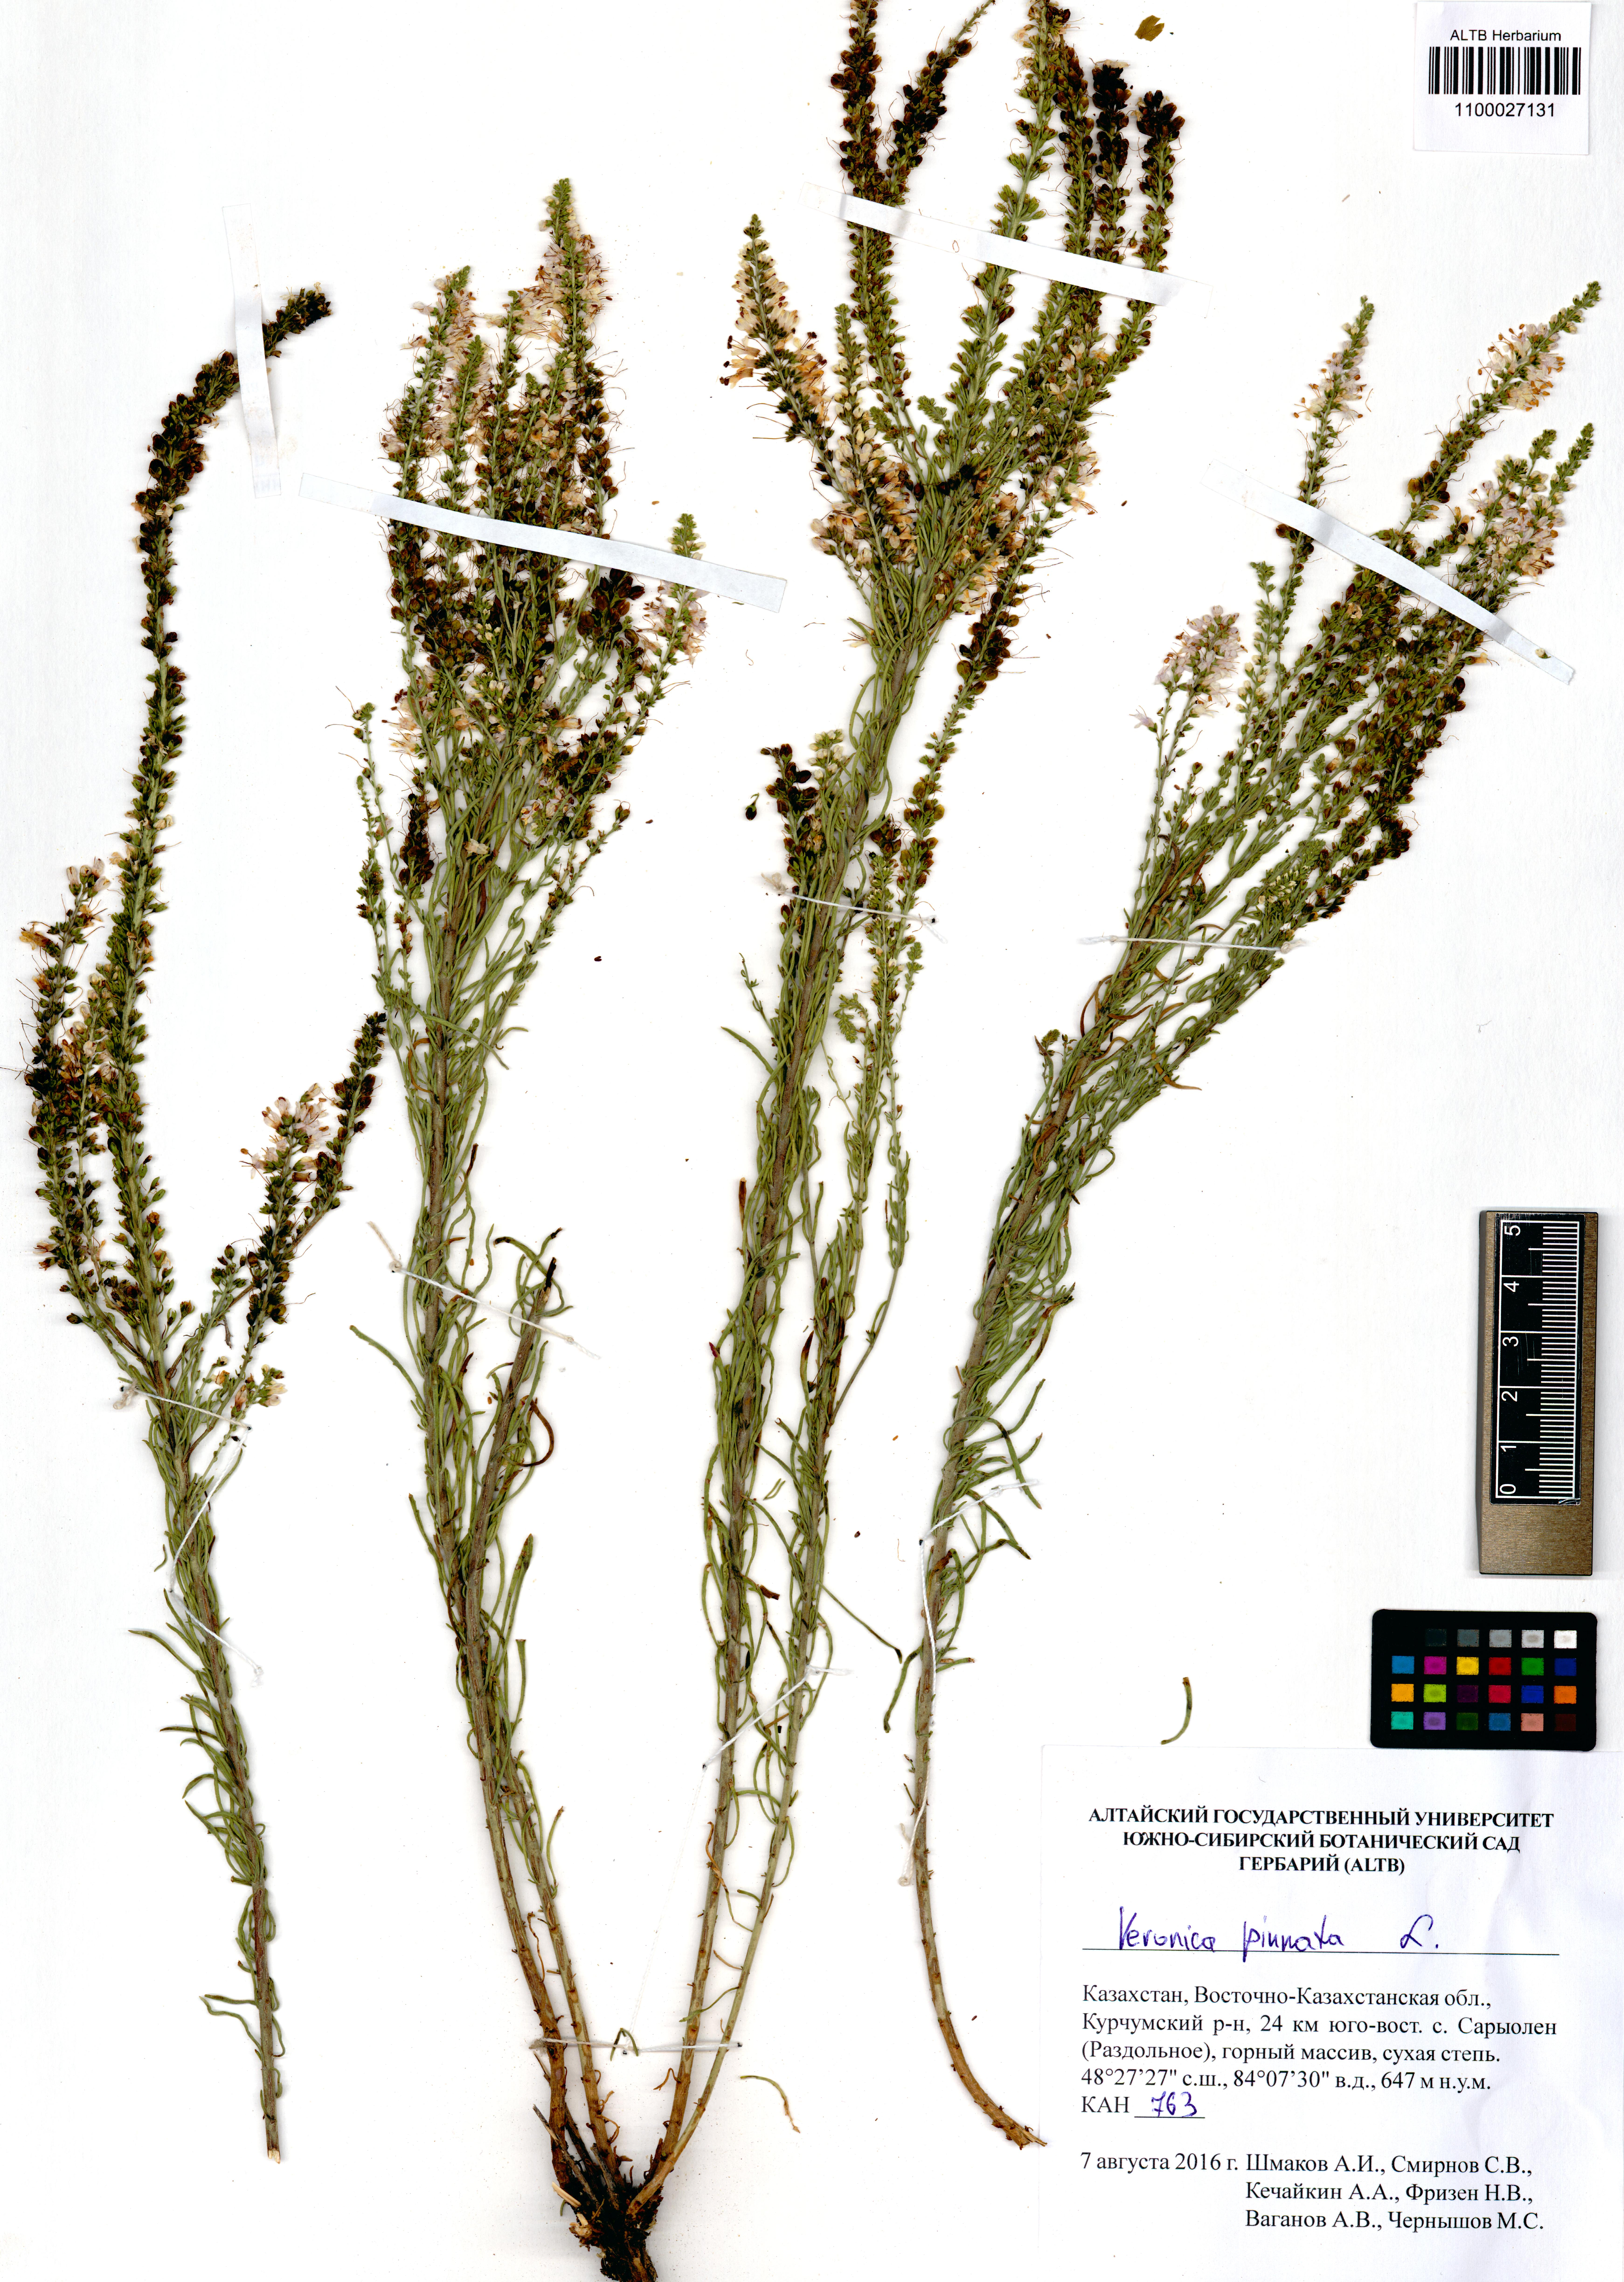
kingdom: Plantae
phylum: Tracheophyta
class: Magnoliopsida
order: Lamiales
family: Plantaginaceae
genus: Veronica
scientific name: Veronica pinnata
